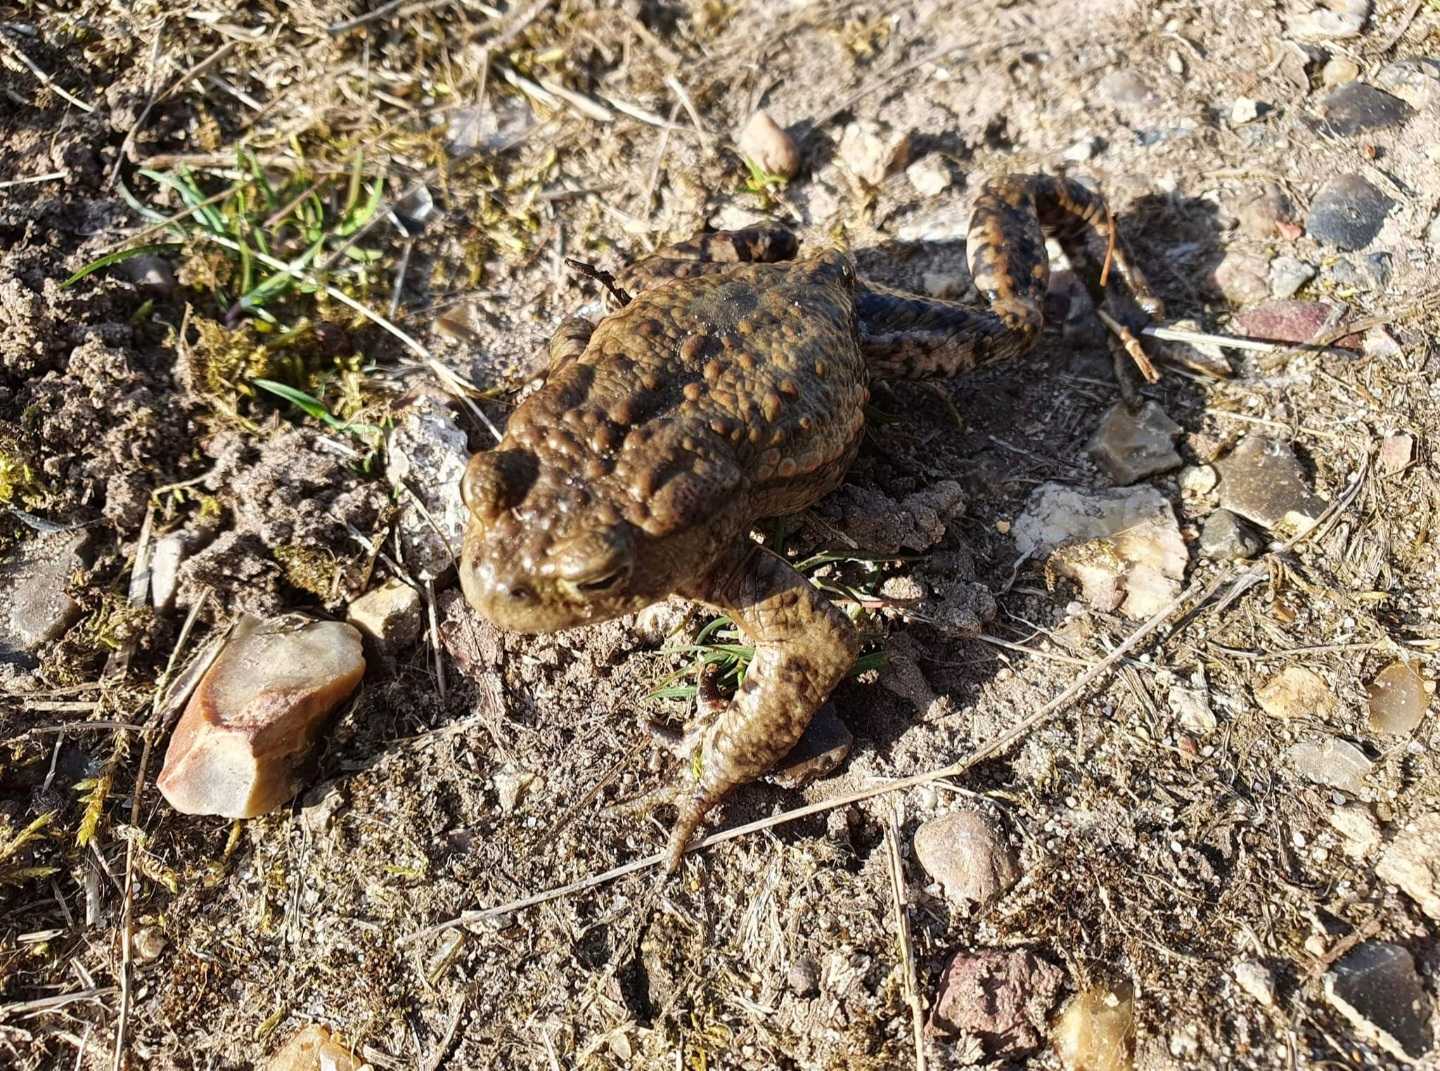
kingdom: Animalia
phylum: Chordata
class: Amphibia
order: Anura
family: Bufonidae
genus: Bufo
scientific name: Bufo bufo
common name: Skrubtudse
